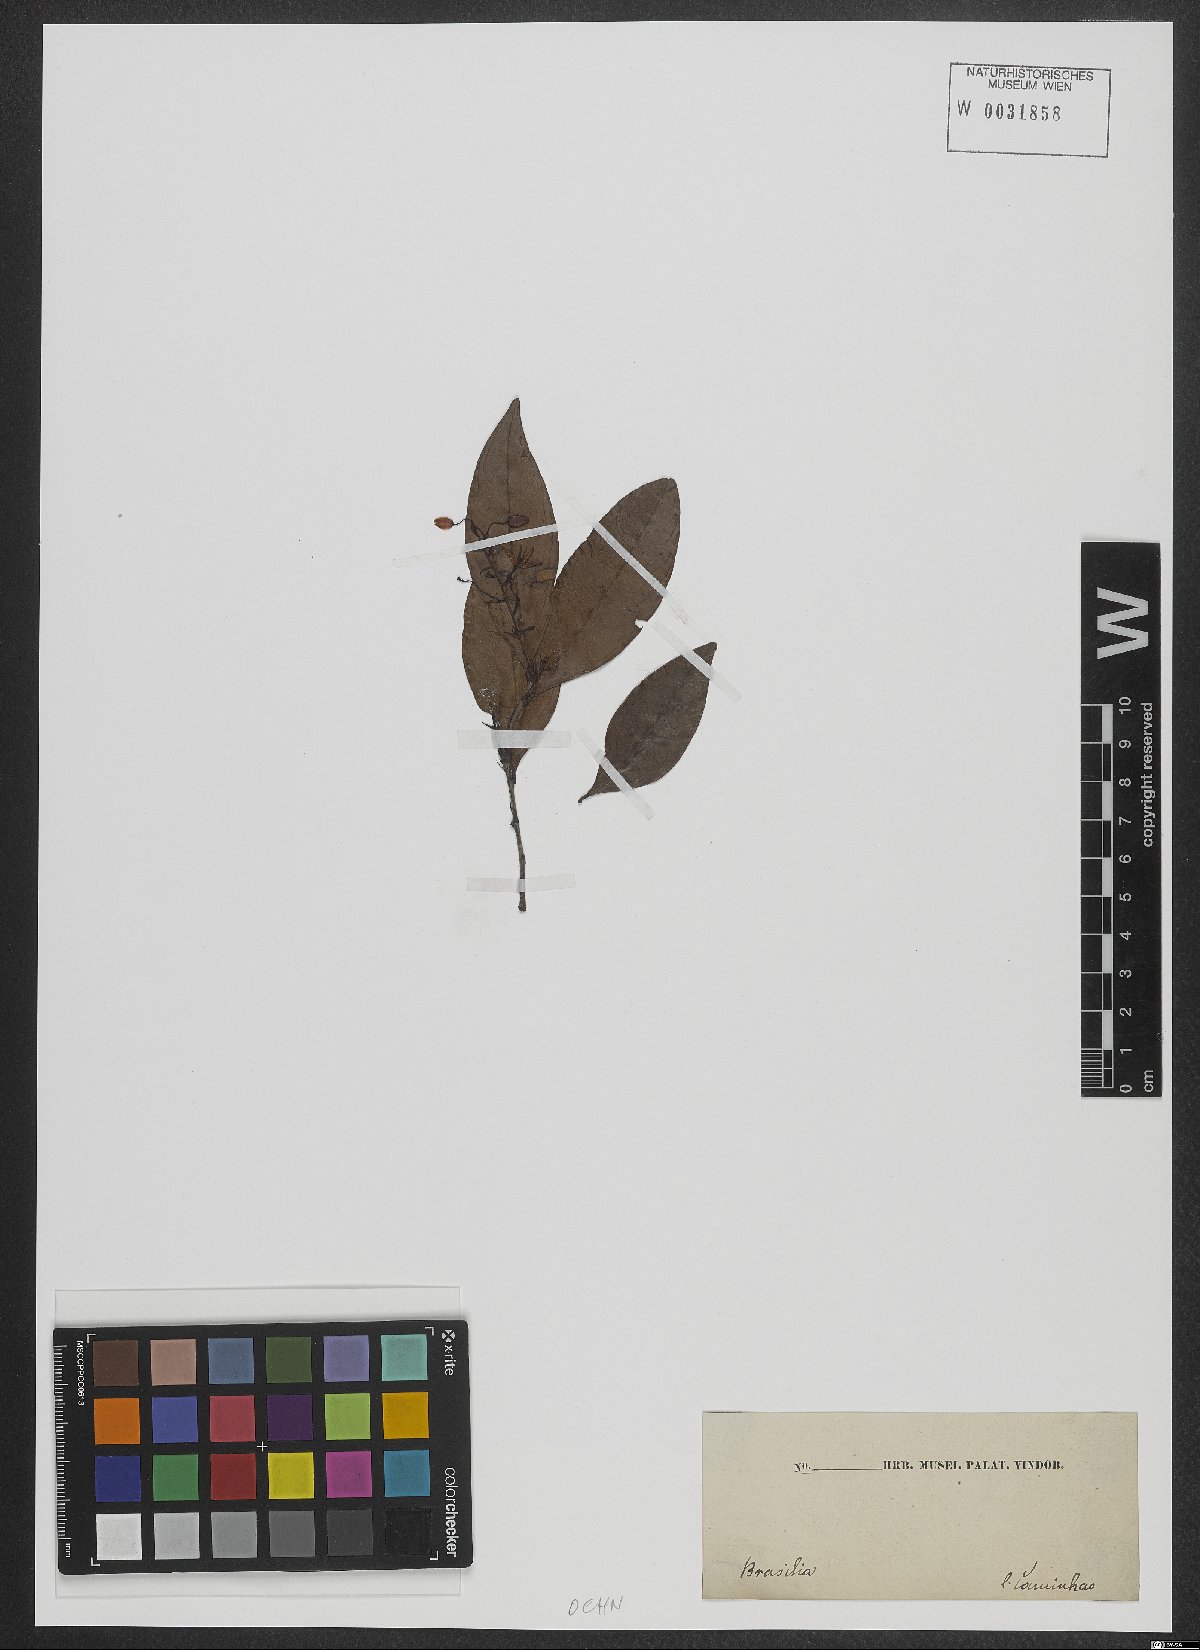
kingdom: Plantae
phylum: Tracheophyta
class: Magnoliopsida
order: Malpighiales
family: Ochnaceae
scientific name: Ochnaceae
